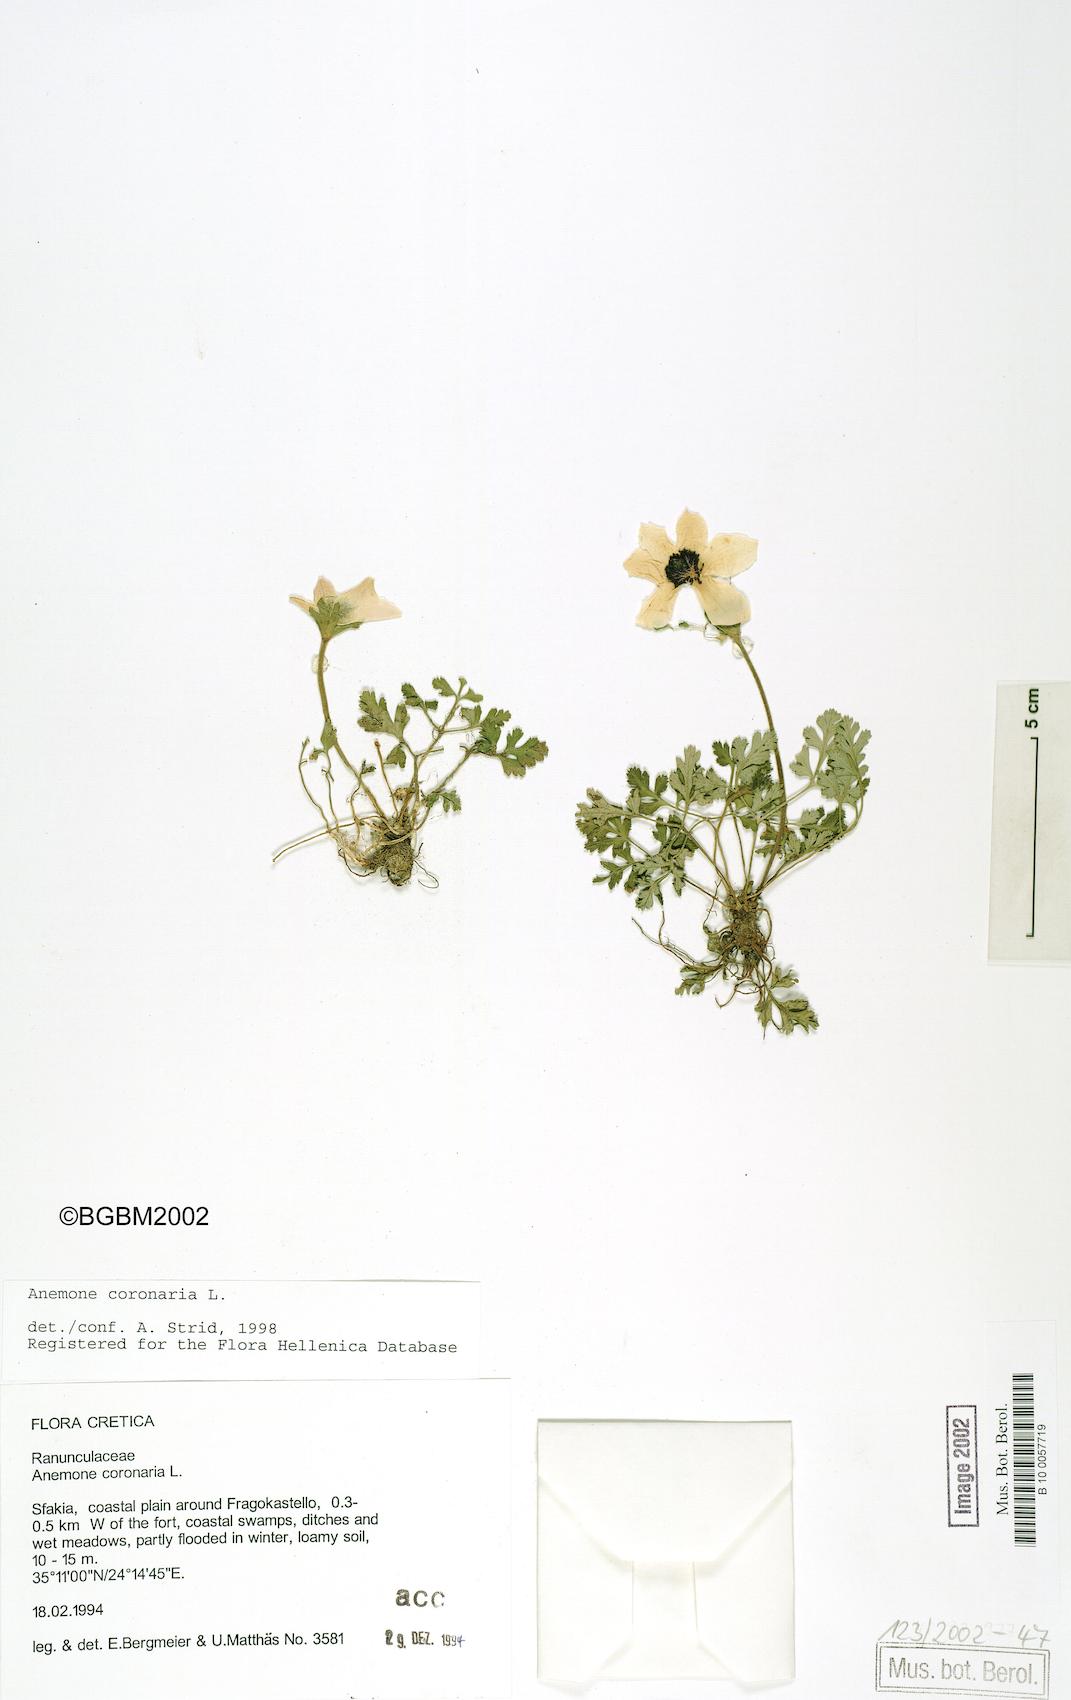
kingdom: Plantae
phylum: Tracheophyta
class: Magnoliopsida
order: Ranunculales
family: Ranunculaceae
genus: Anemone
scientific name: Anemone coronaria
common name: Poppy anemone
